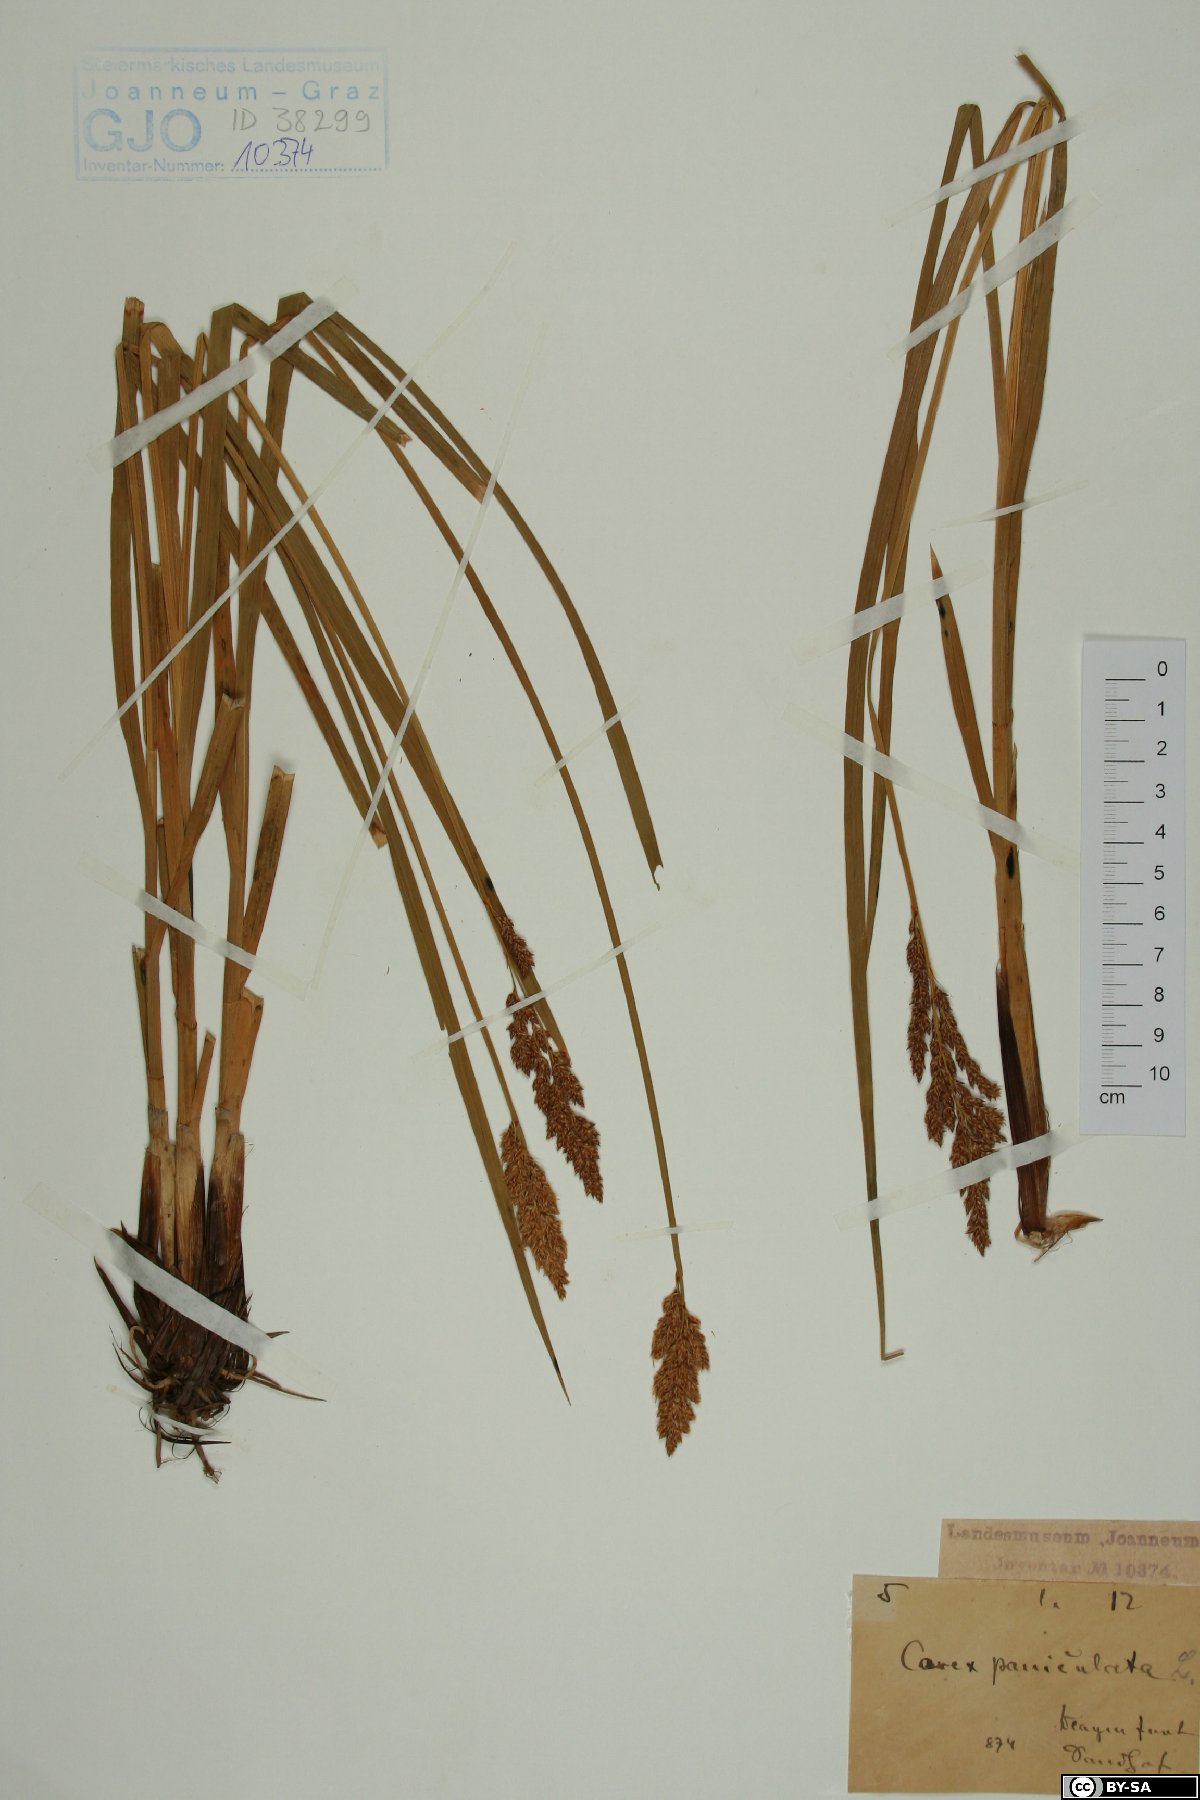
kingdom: Plantae
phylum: Tracheophyta
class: Liliopsida
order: Poales
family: Cyperaceae
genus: Carex
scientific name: Carex paniculata
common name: Greater tussock-sedge
